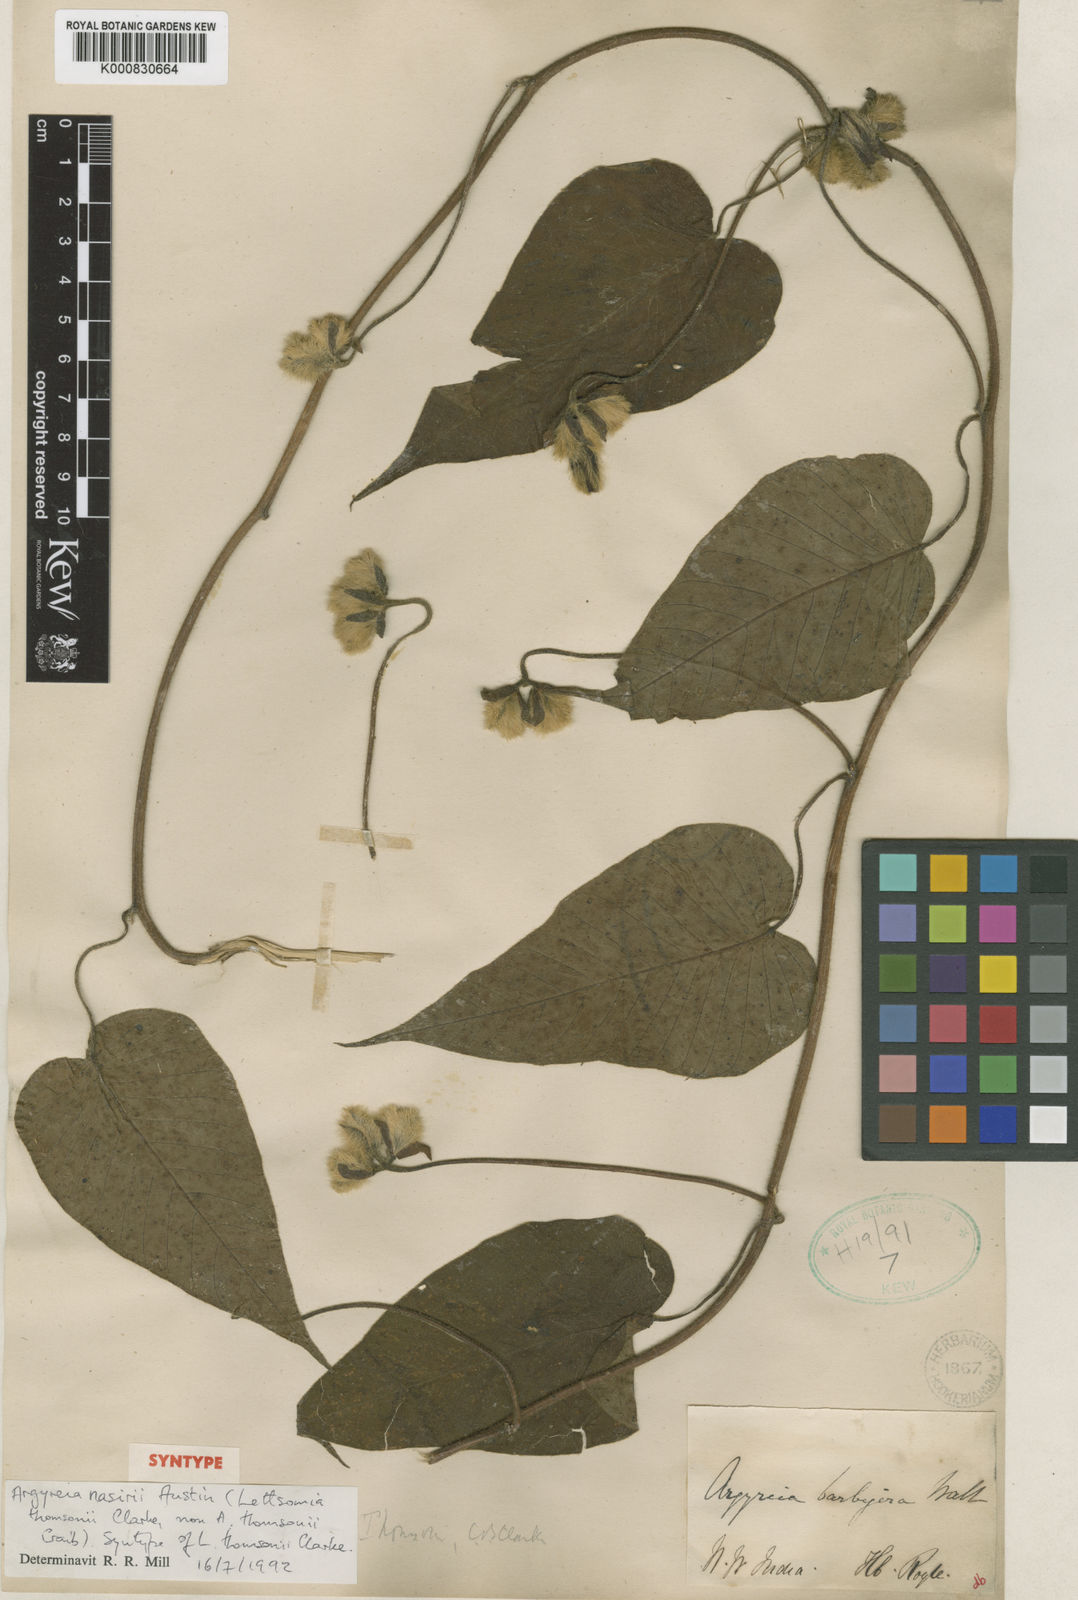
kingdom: Plantae
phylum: Tracheophyta
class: Magnoliopsida
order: Solanales
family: Convolvulaceae
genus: Argyreia
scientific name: Argyreia thomsonii
